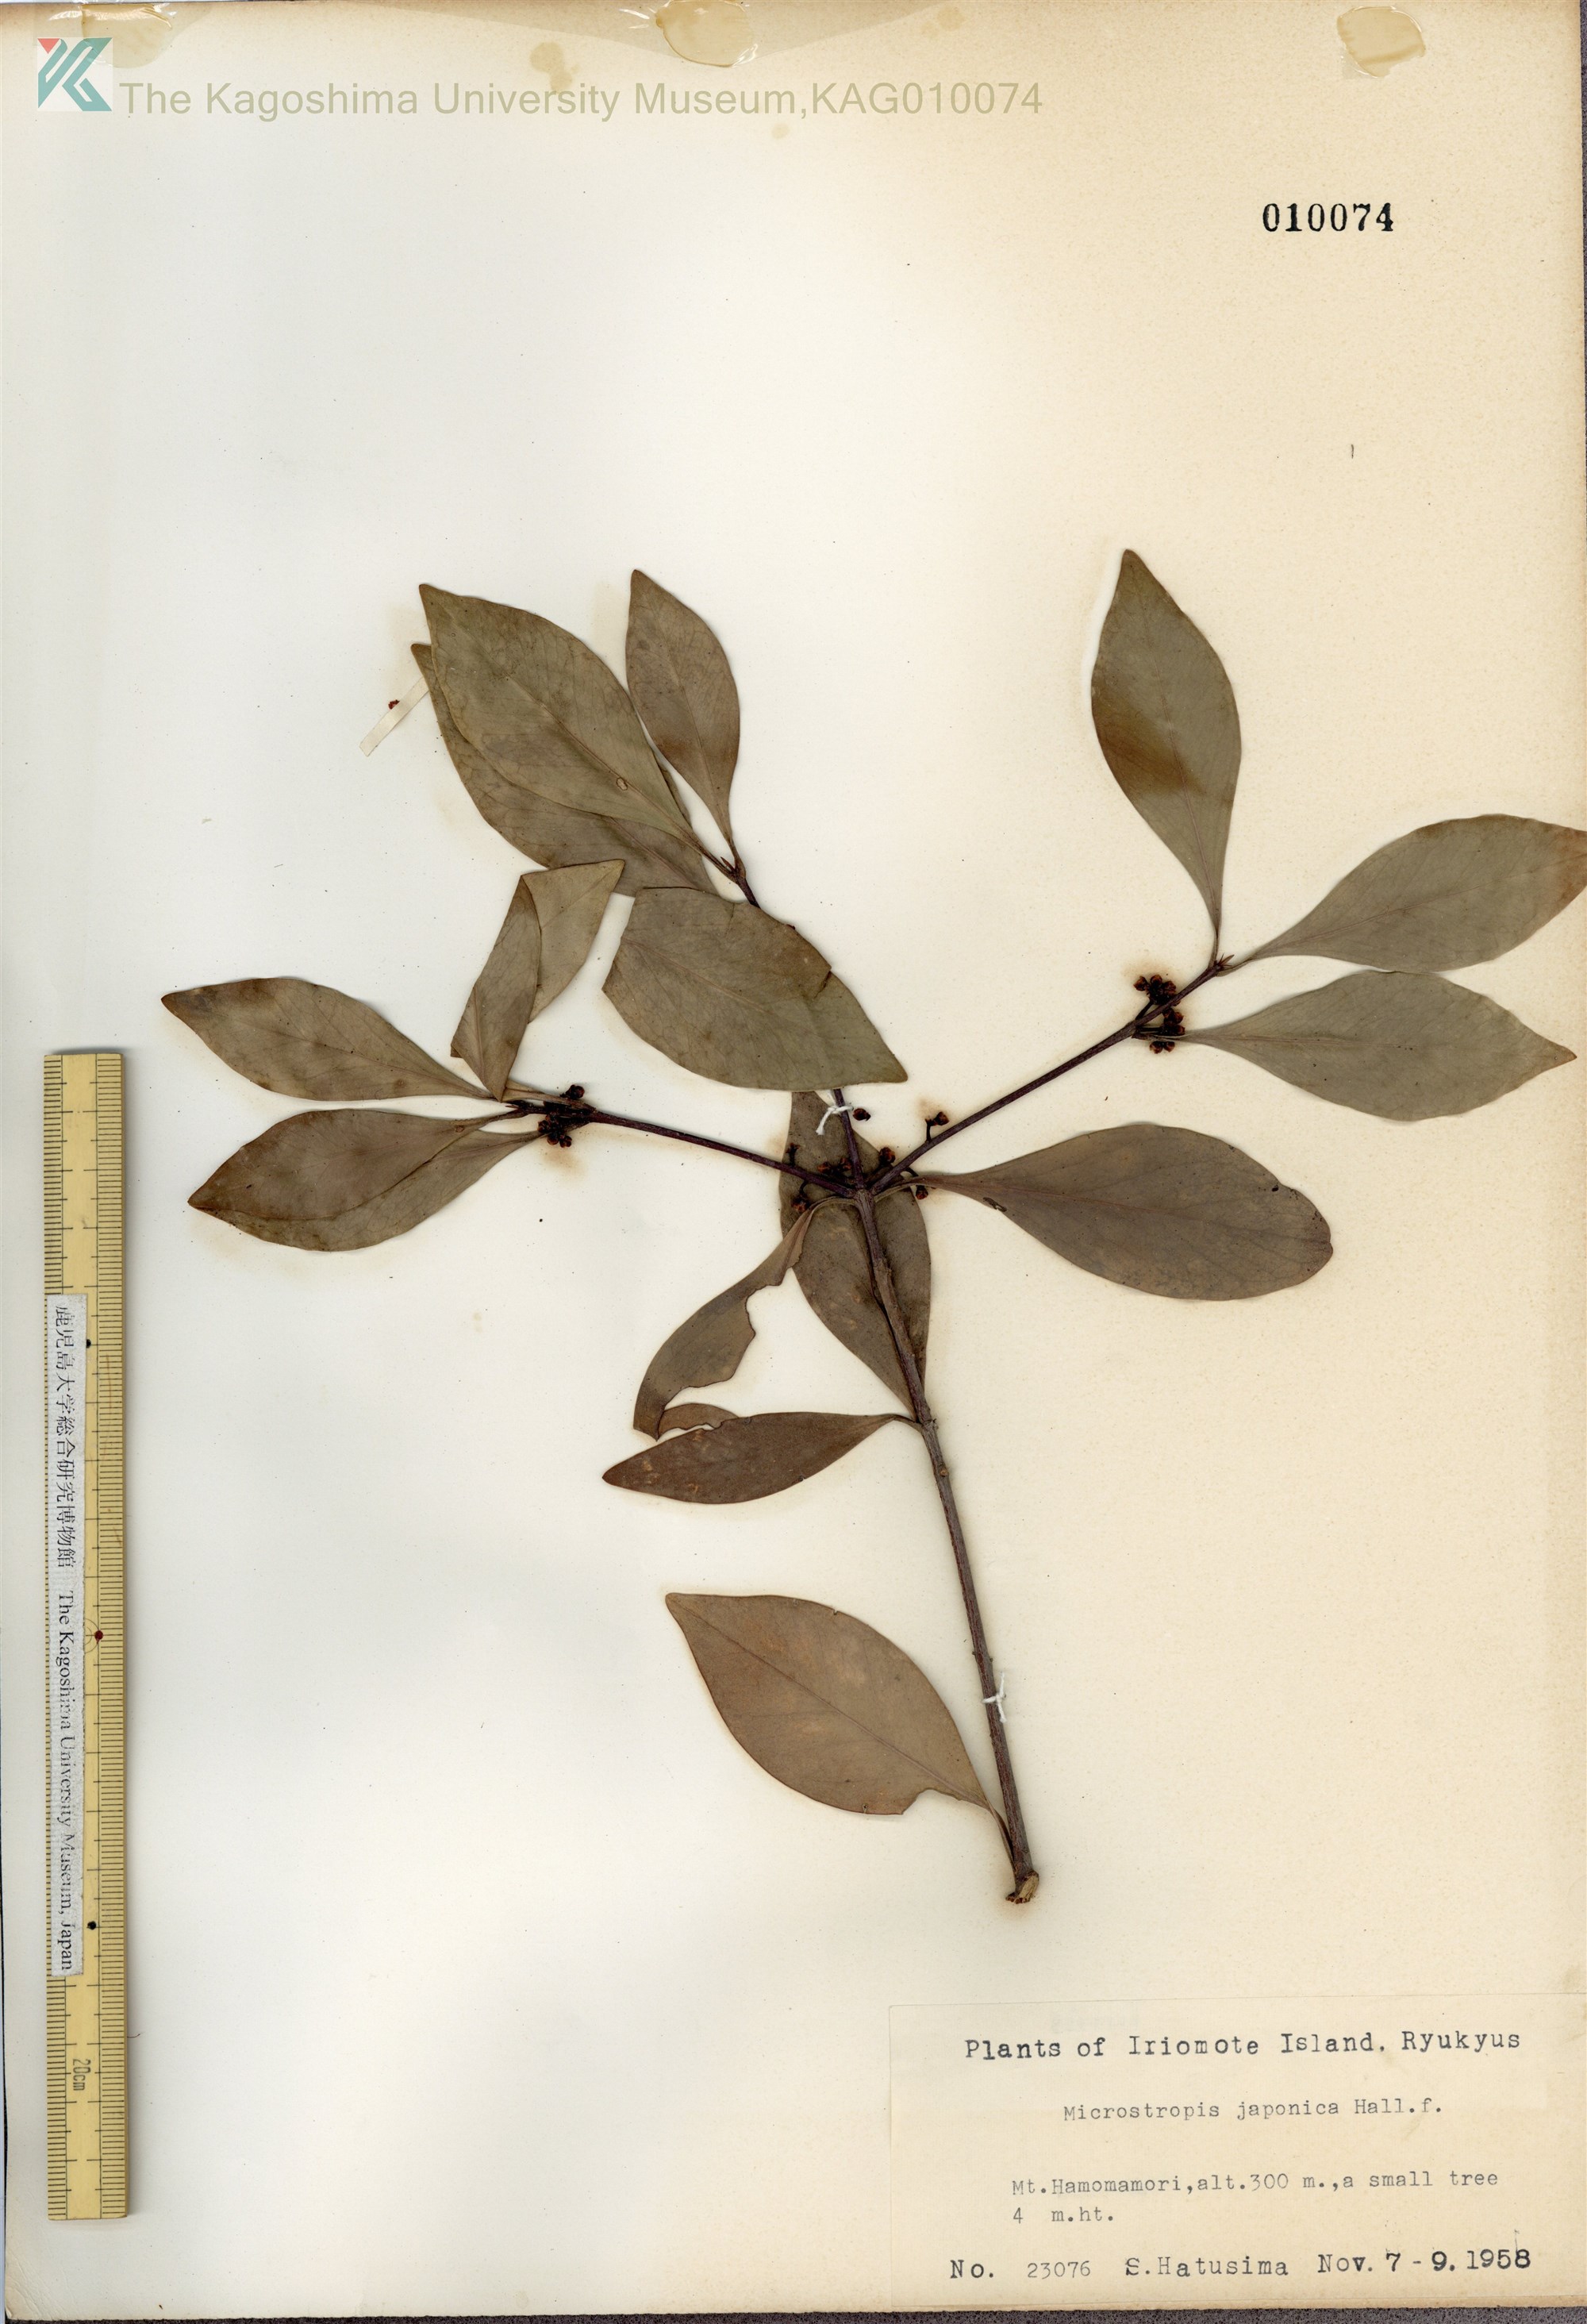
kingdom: Plantae
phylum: Tracheophyta
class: Magnoliopsida
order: Celastrales
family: Celastraceae
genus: Microtropis
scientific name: Microtropis japonica
